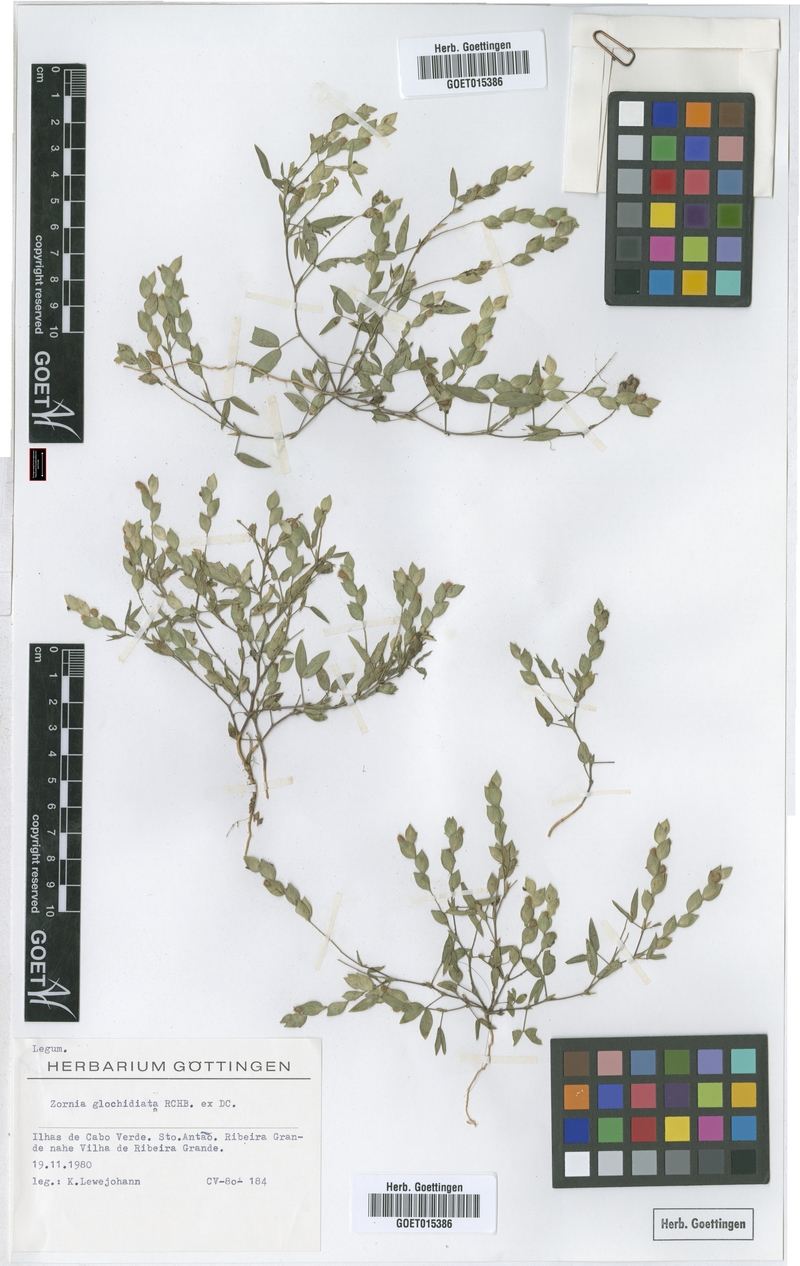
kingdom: Plantae
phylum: Tracheophyta
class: Magnoliopsida
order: Fabales
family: Fabaceae
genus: Zornia
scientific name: Zornia glochidiata
